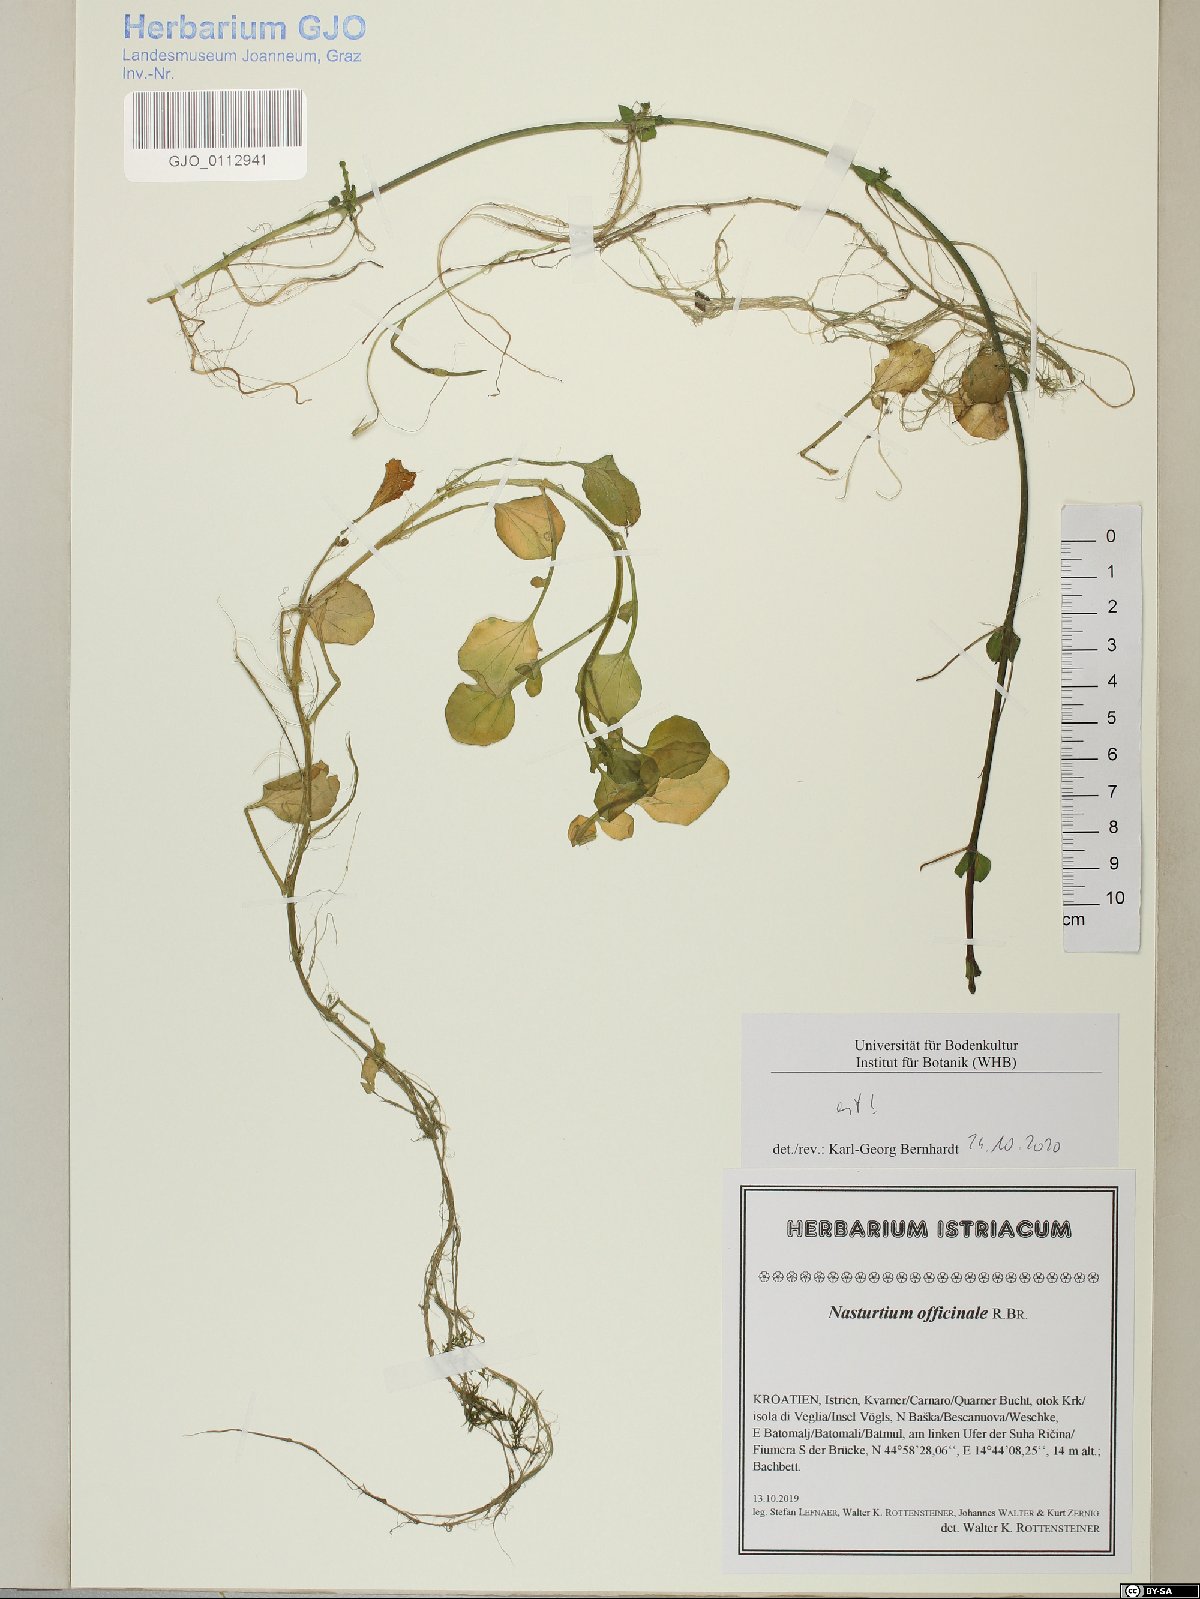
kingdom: Plantae
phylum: Tracheophyta
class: Magnoliopsida
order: Brassicales
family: Brassicaceae
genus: Nasturtium
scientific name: Nasturtium officinale
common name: Watercress
